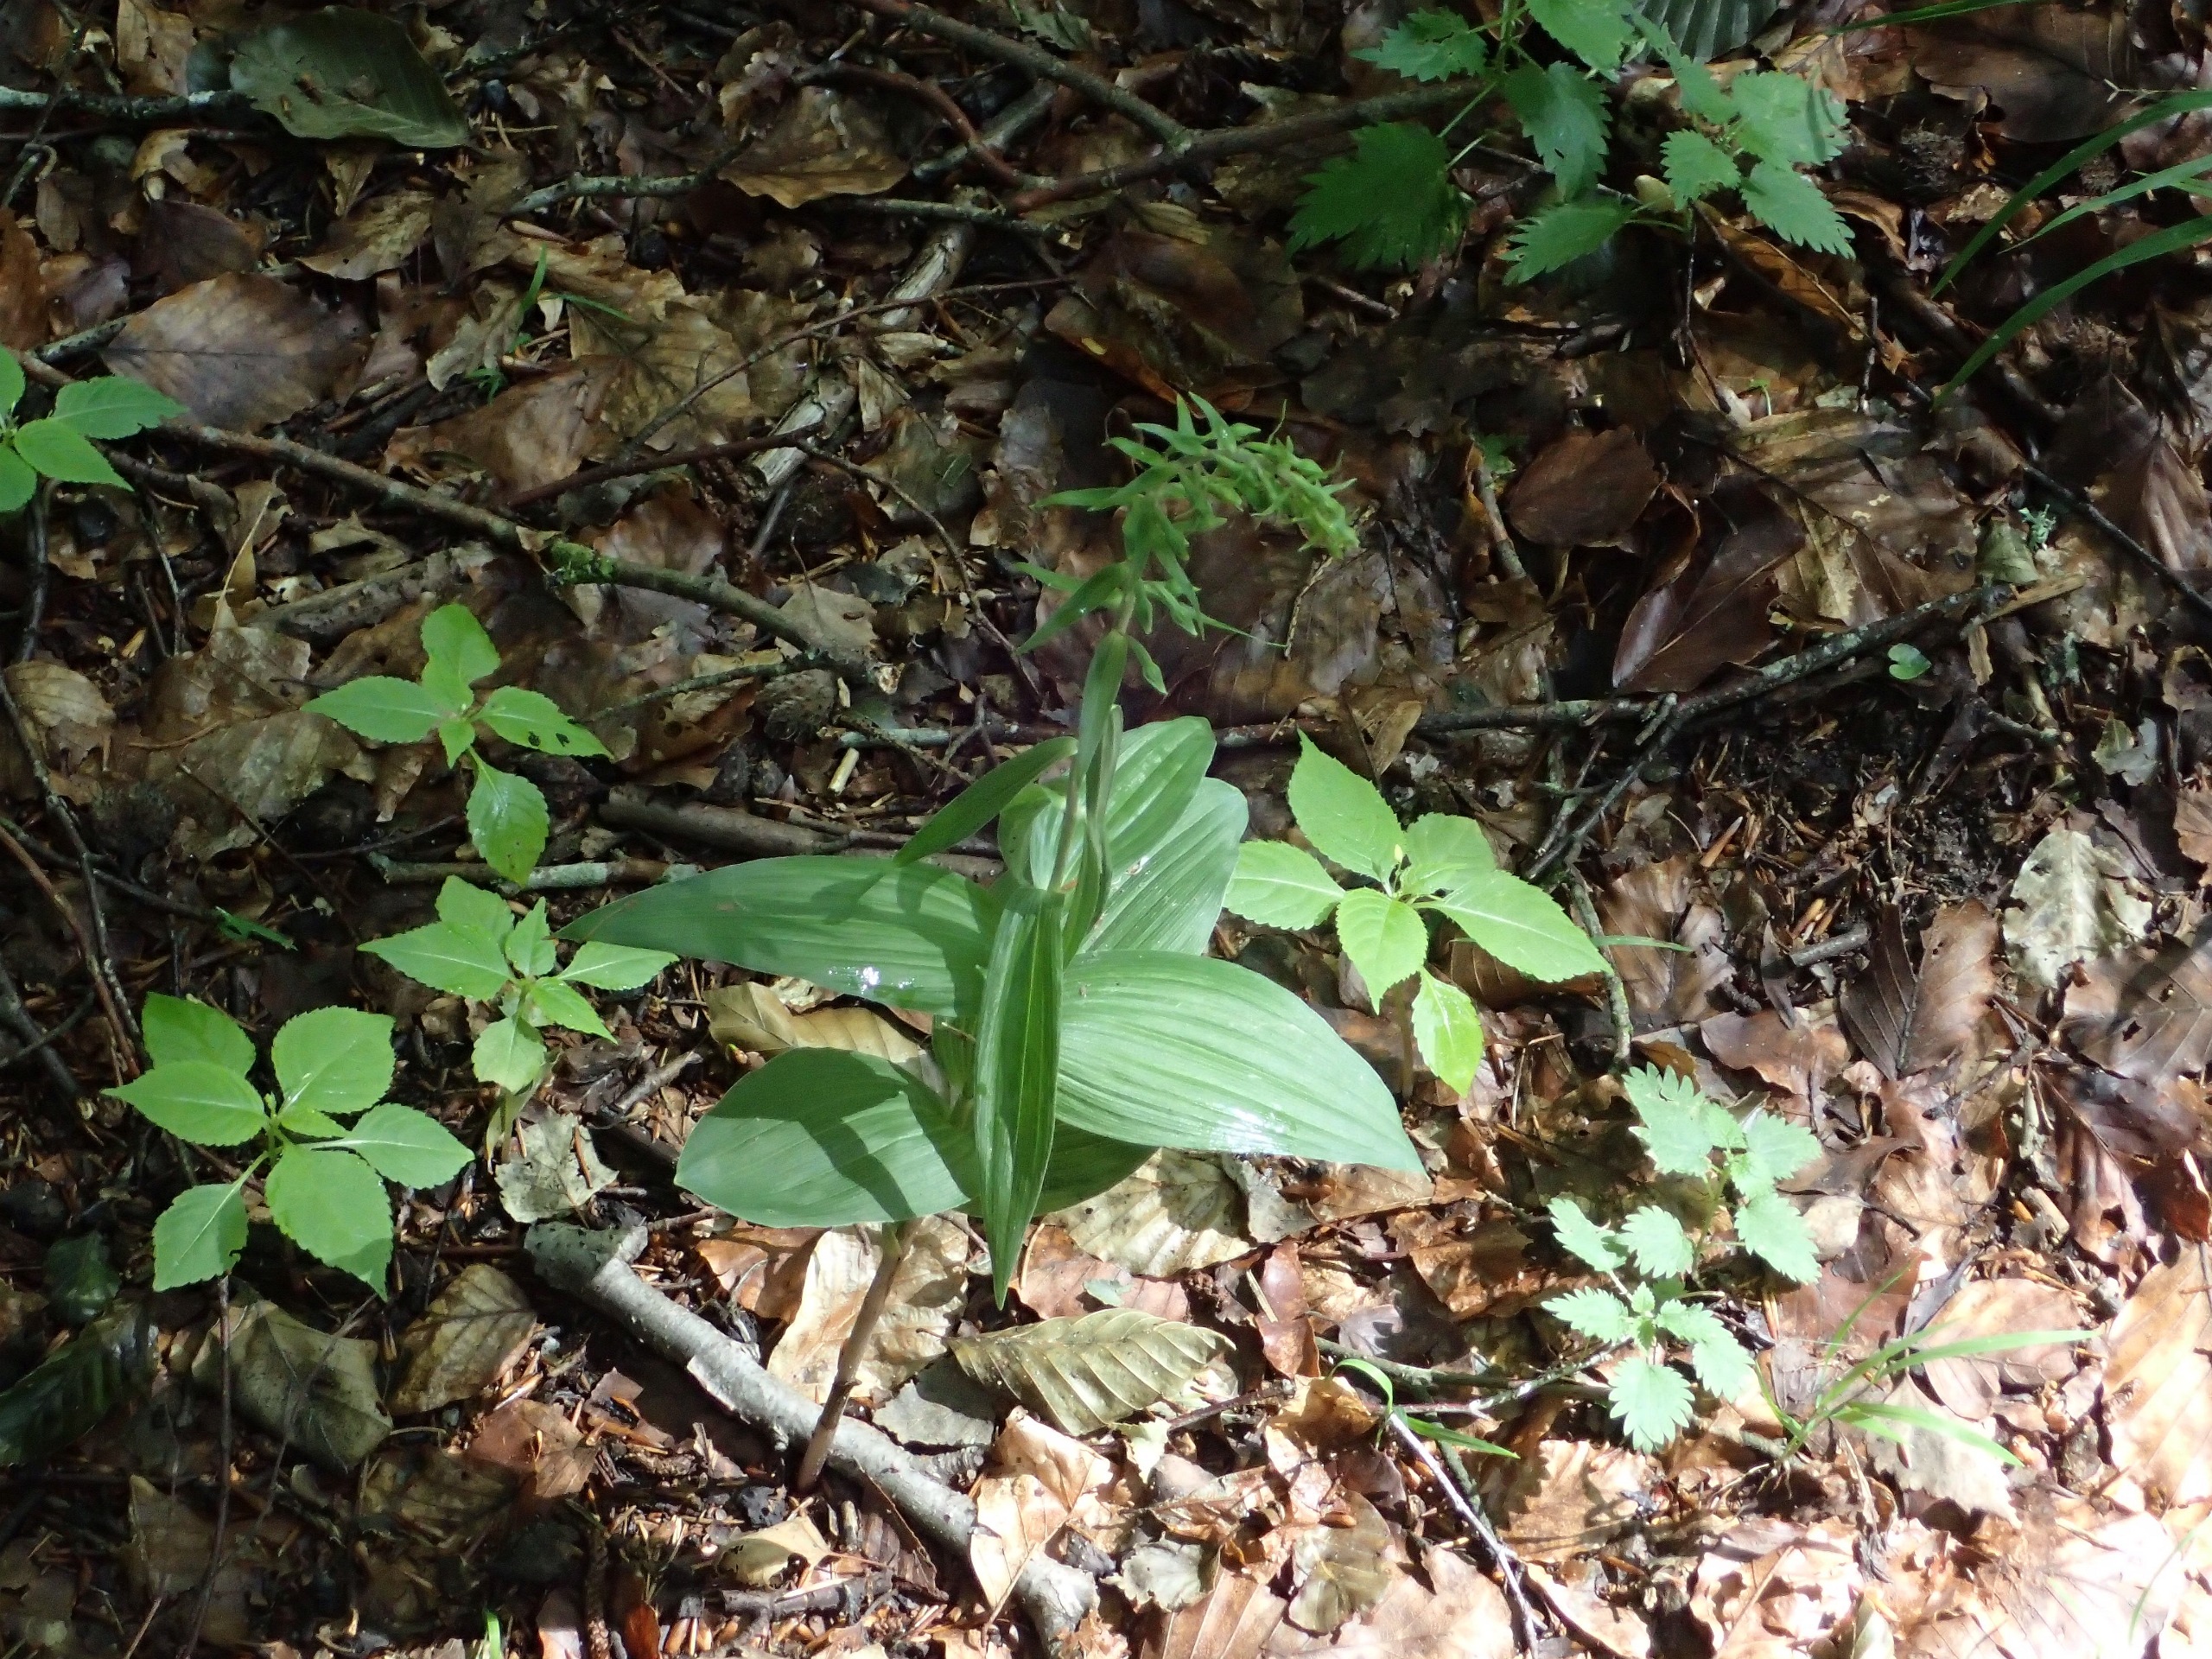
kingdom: Plantae
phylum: Tracheophyta
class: Liliopsida
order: Asparagales
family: Orchidaceae
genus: Epipactis
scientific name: Epipactis helleborine
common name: Skov-hullæbe
